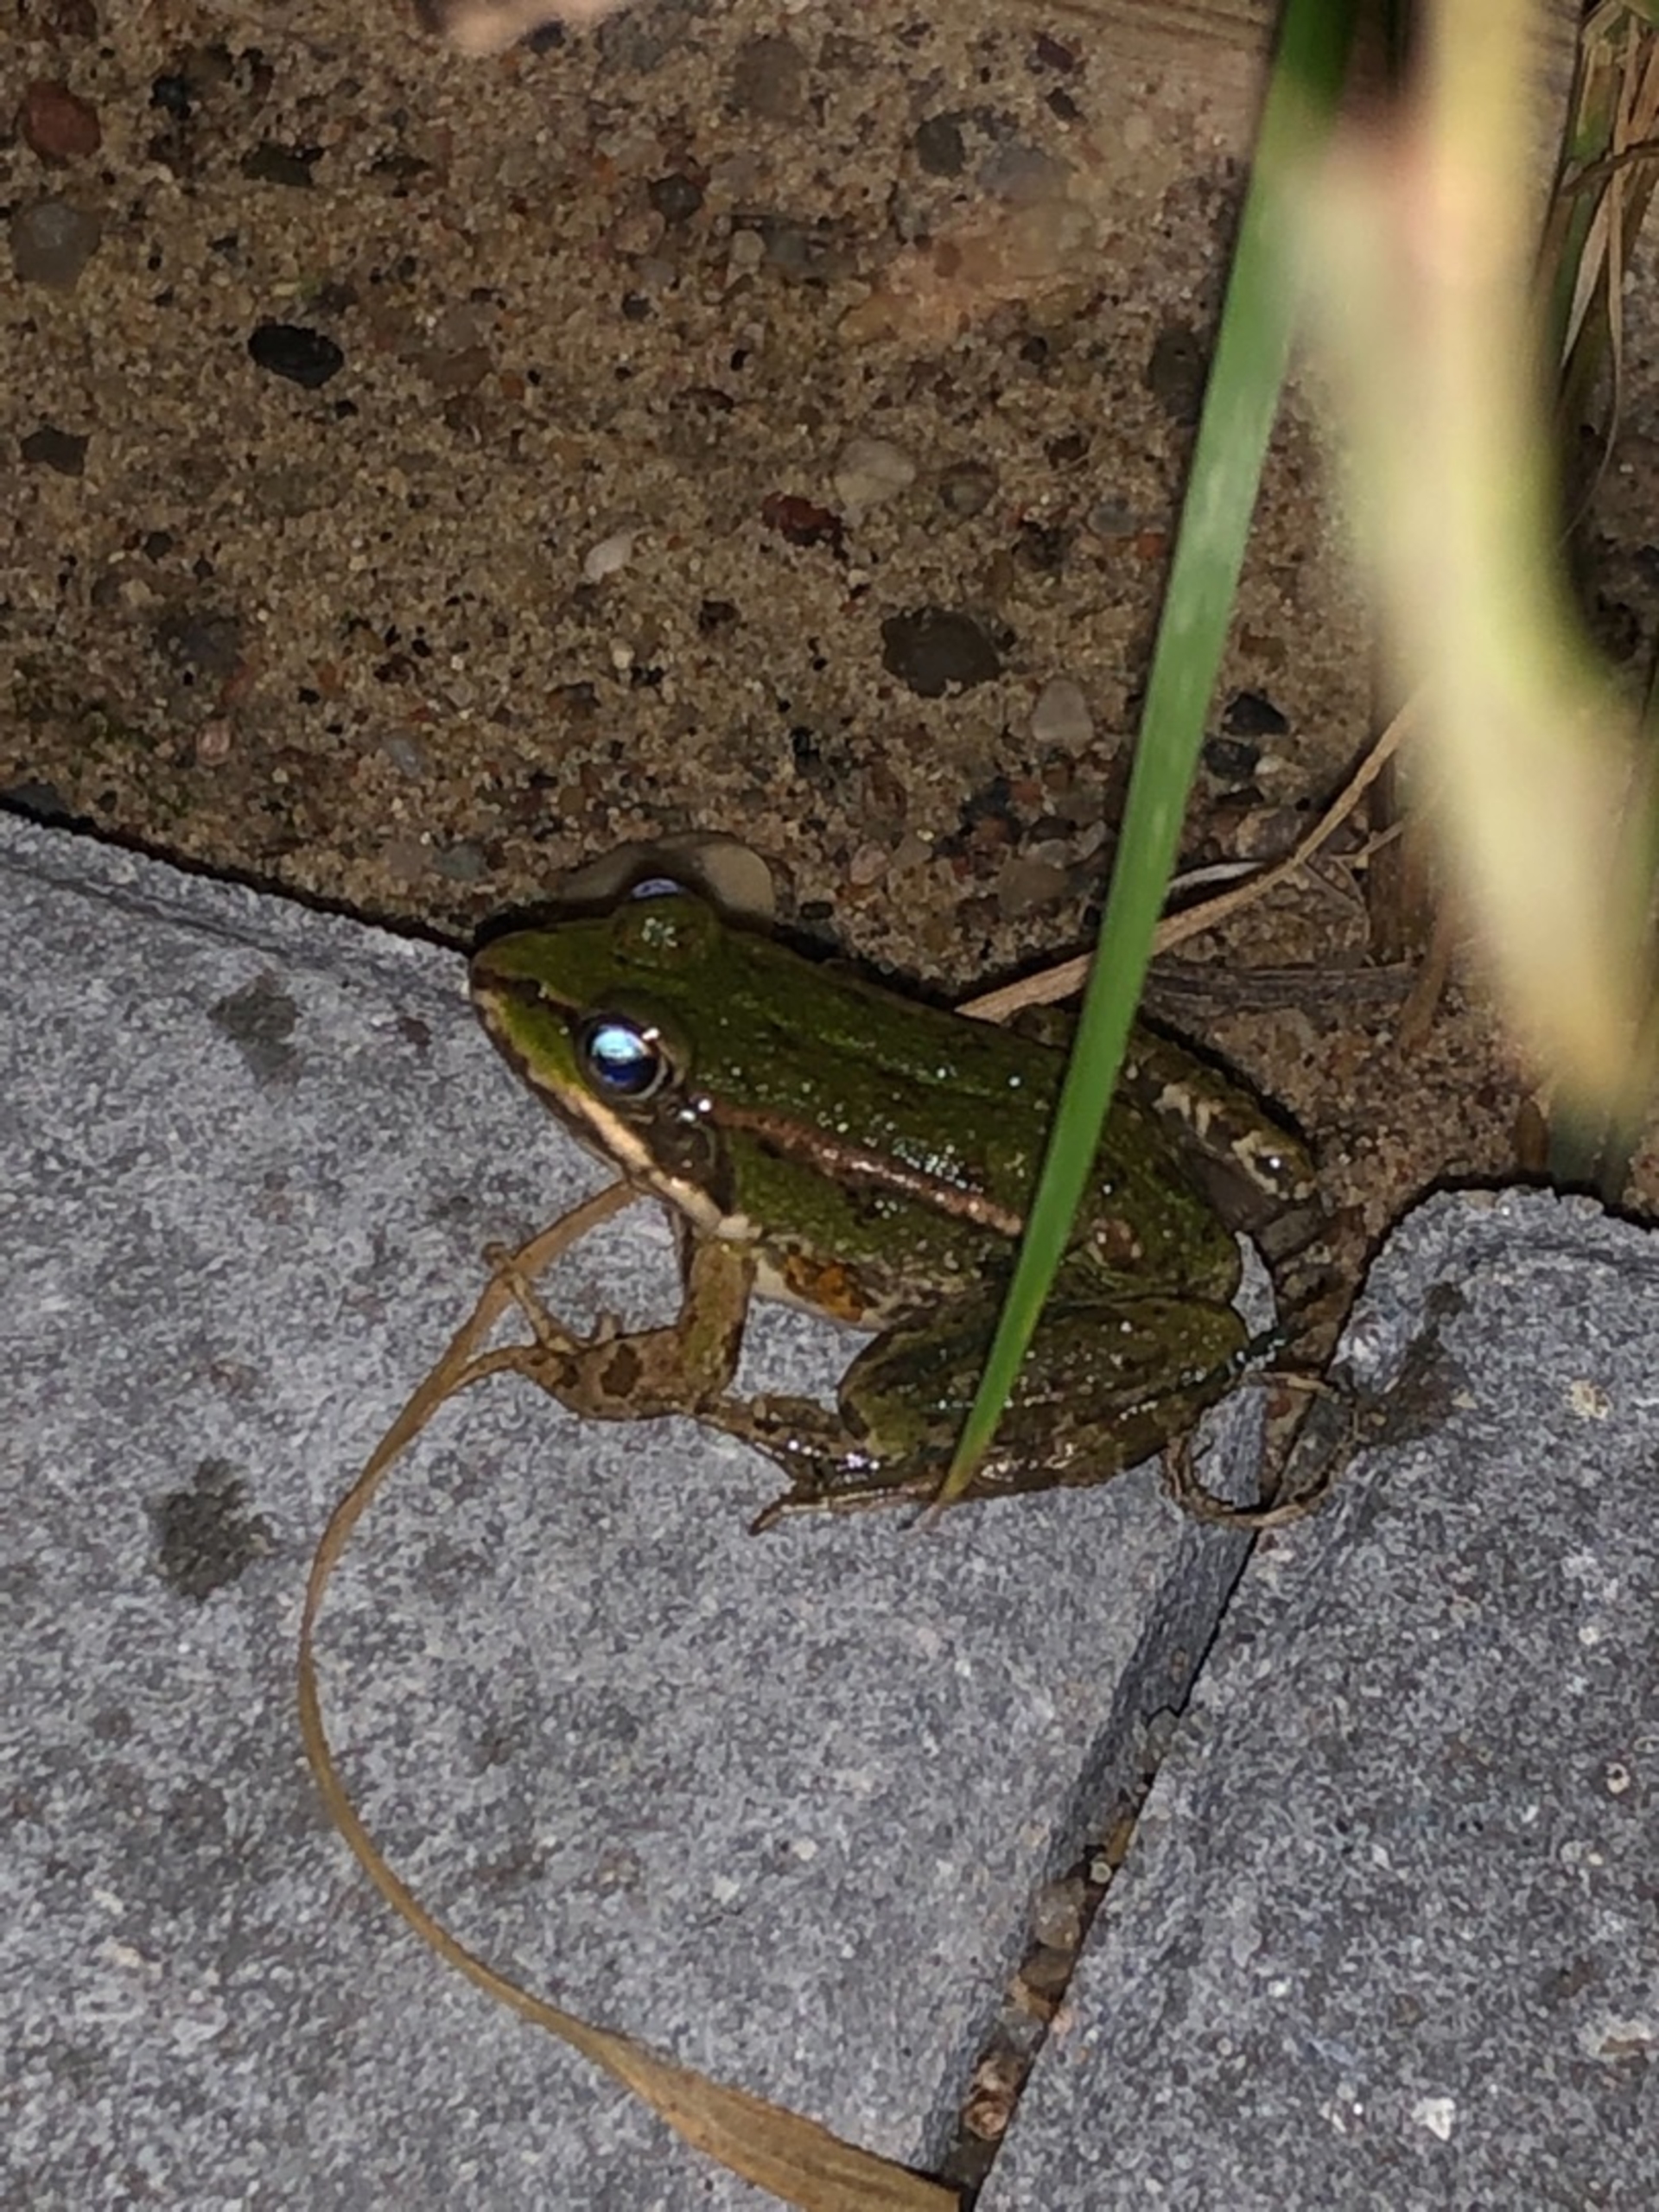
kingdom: Animalia
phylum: Chordata
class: Amphibia
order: Anura
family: Ranidae
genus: Pelophylax
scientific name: Pelophylax lessonae
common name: Grøn frø
